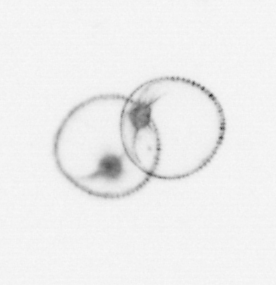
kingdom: Chromista
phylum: Myzozoa
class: Dinophyceae
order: Noctilucales
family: Noctilucaceae
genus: Noctiluca
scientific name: Noctiluca scintillans
